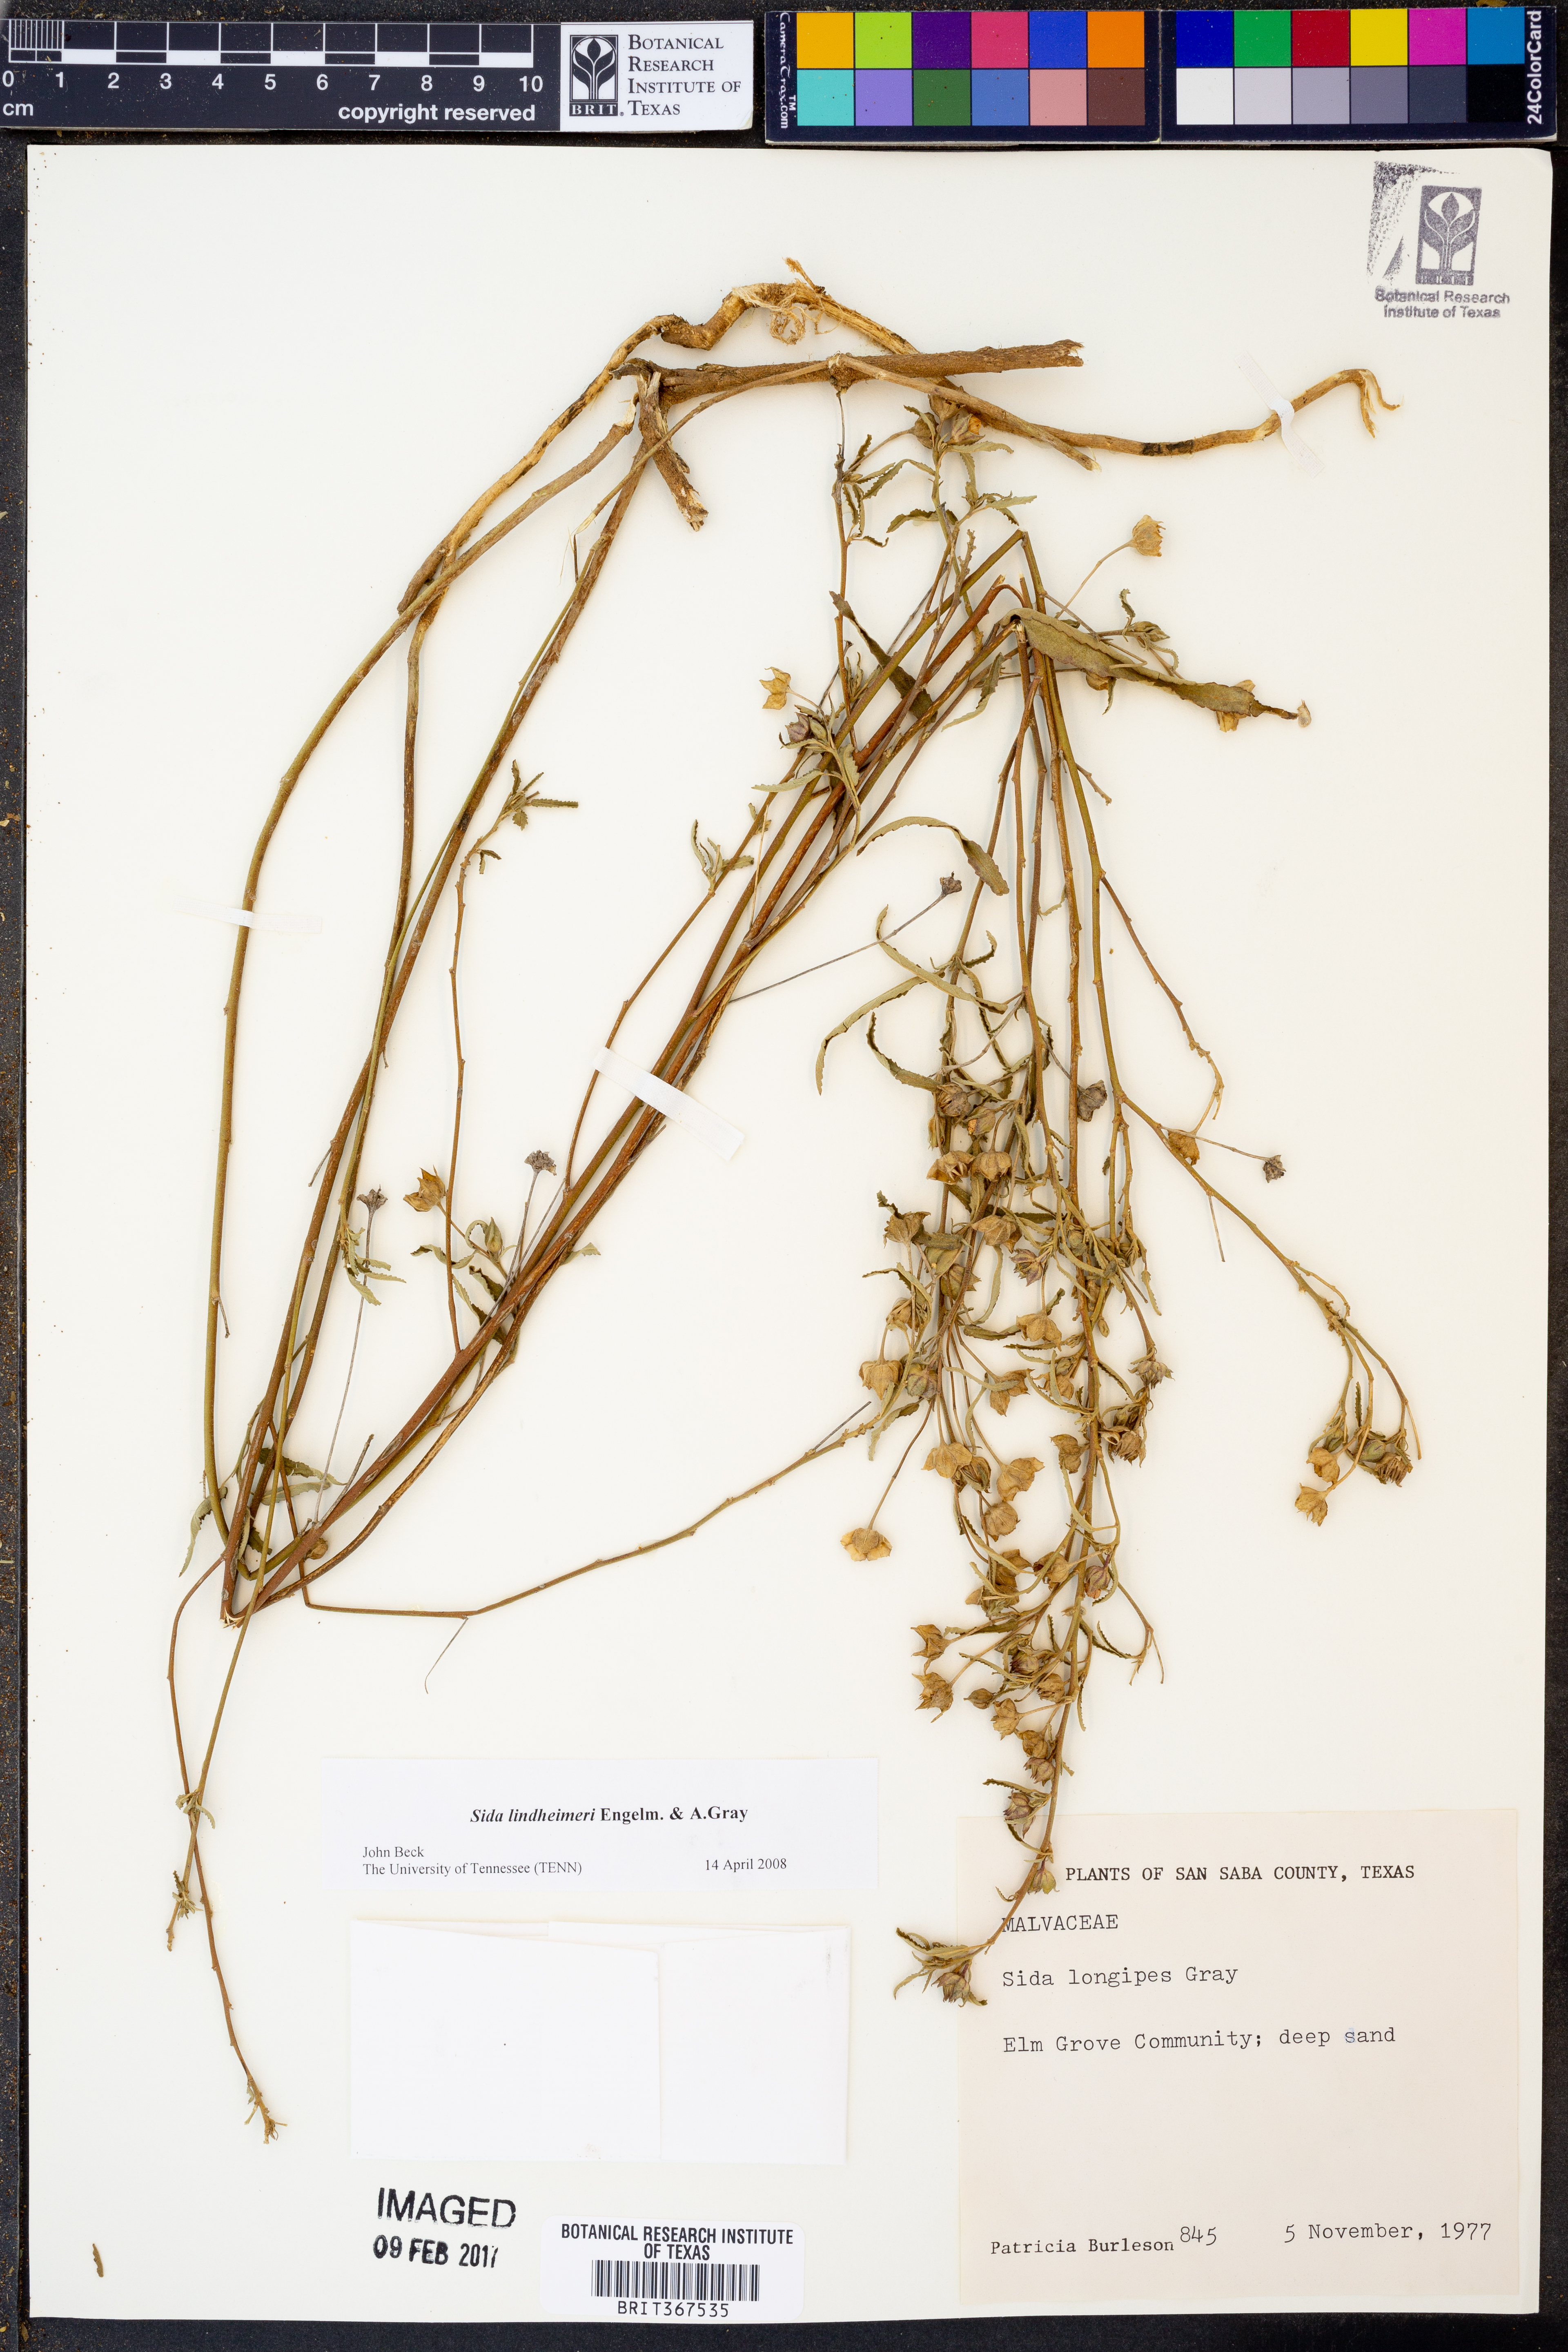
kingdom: Plantae
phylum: Tracheophyta
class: Magnoliopsida
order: Malvales
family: Malvaceae
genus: Sida
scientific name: Sida lindheimeri
